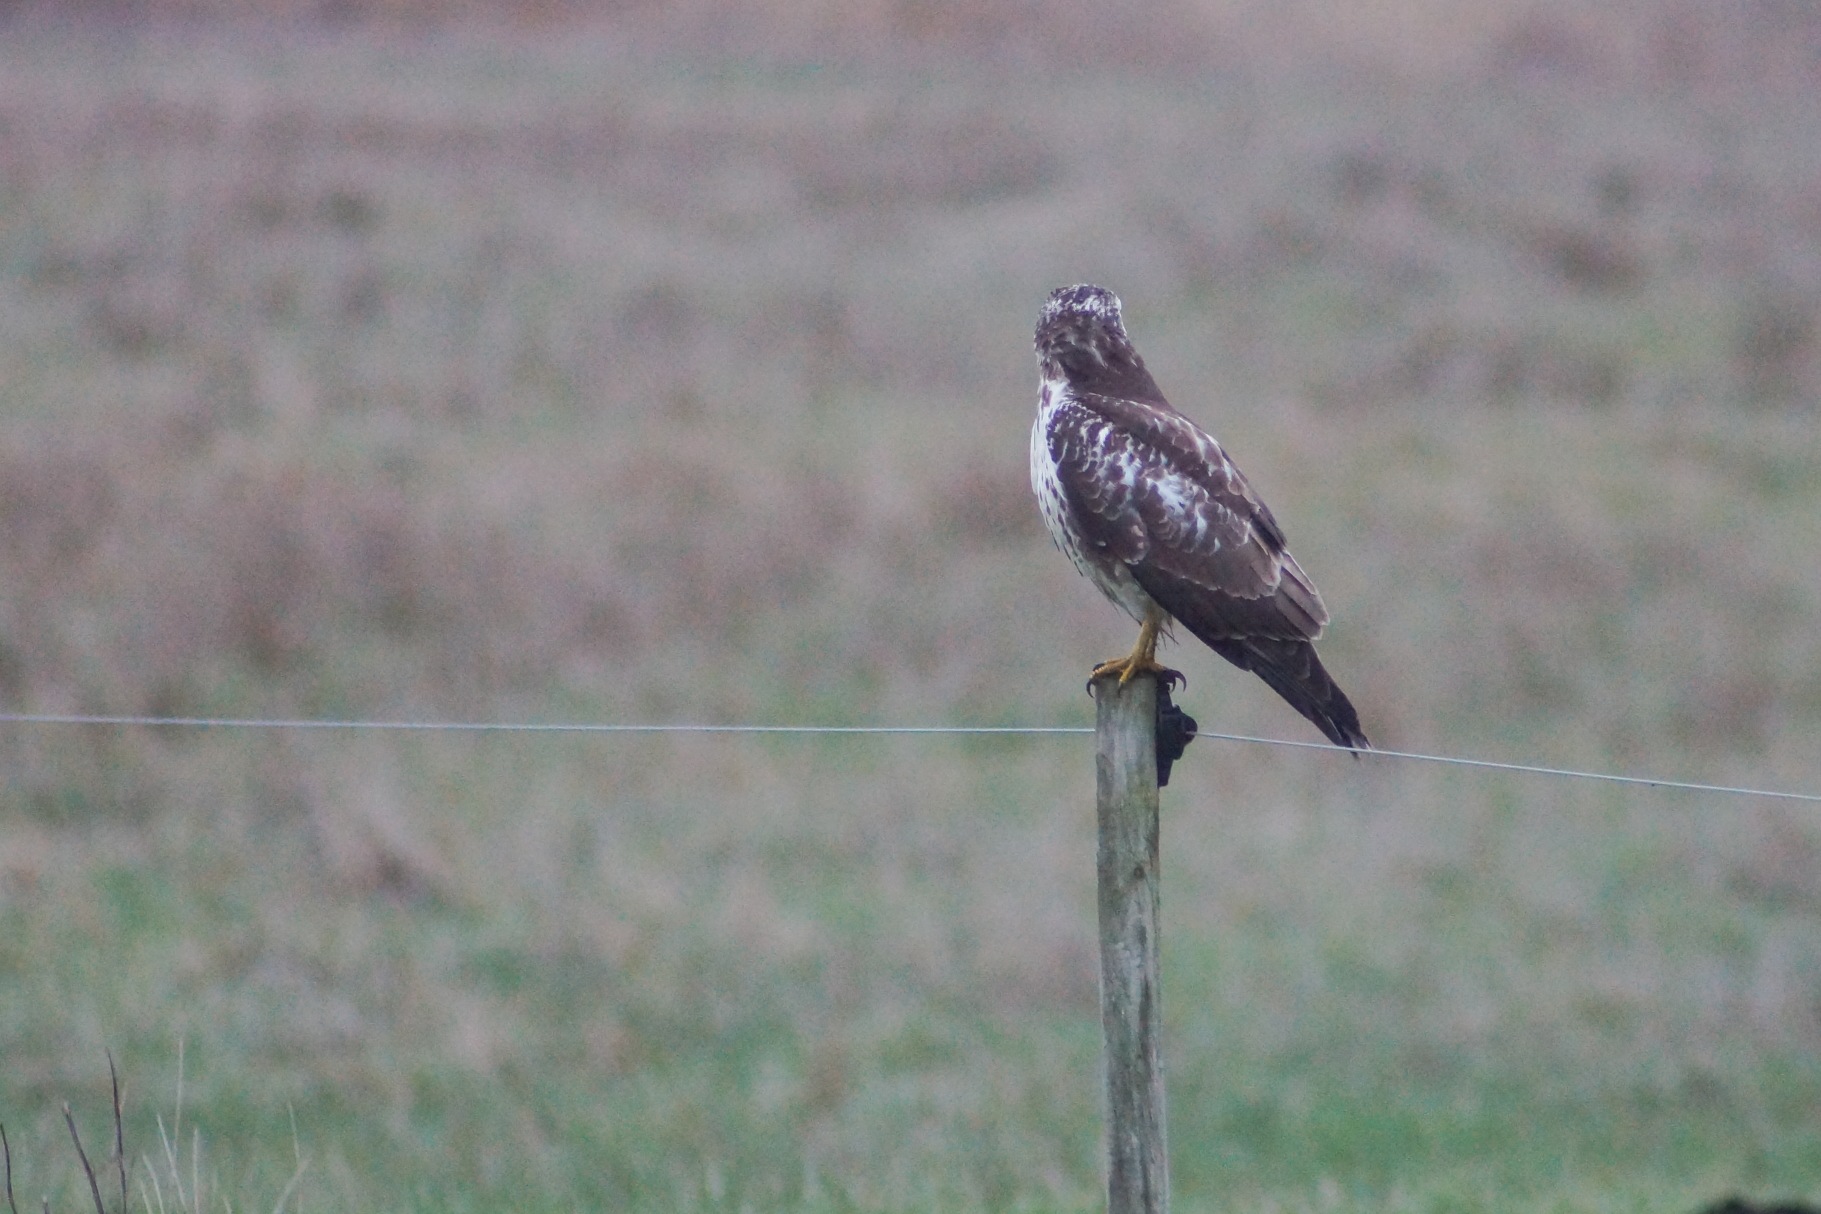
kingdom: Animalia
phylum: Chordata
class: Aves
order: Accipitriformes
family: Accipitridae
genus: Buteo
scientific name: Buteo buteo
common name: Musvåge
